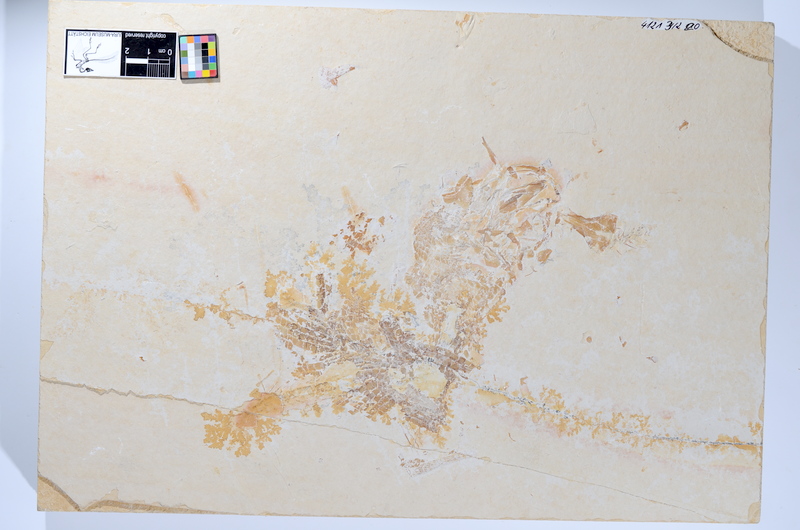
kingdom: Animalia
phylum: Chordata
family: Ankylophoridae
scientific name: Ankylophoridae
